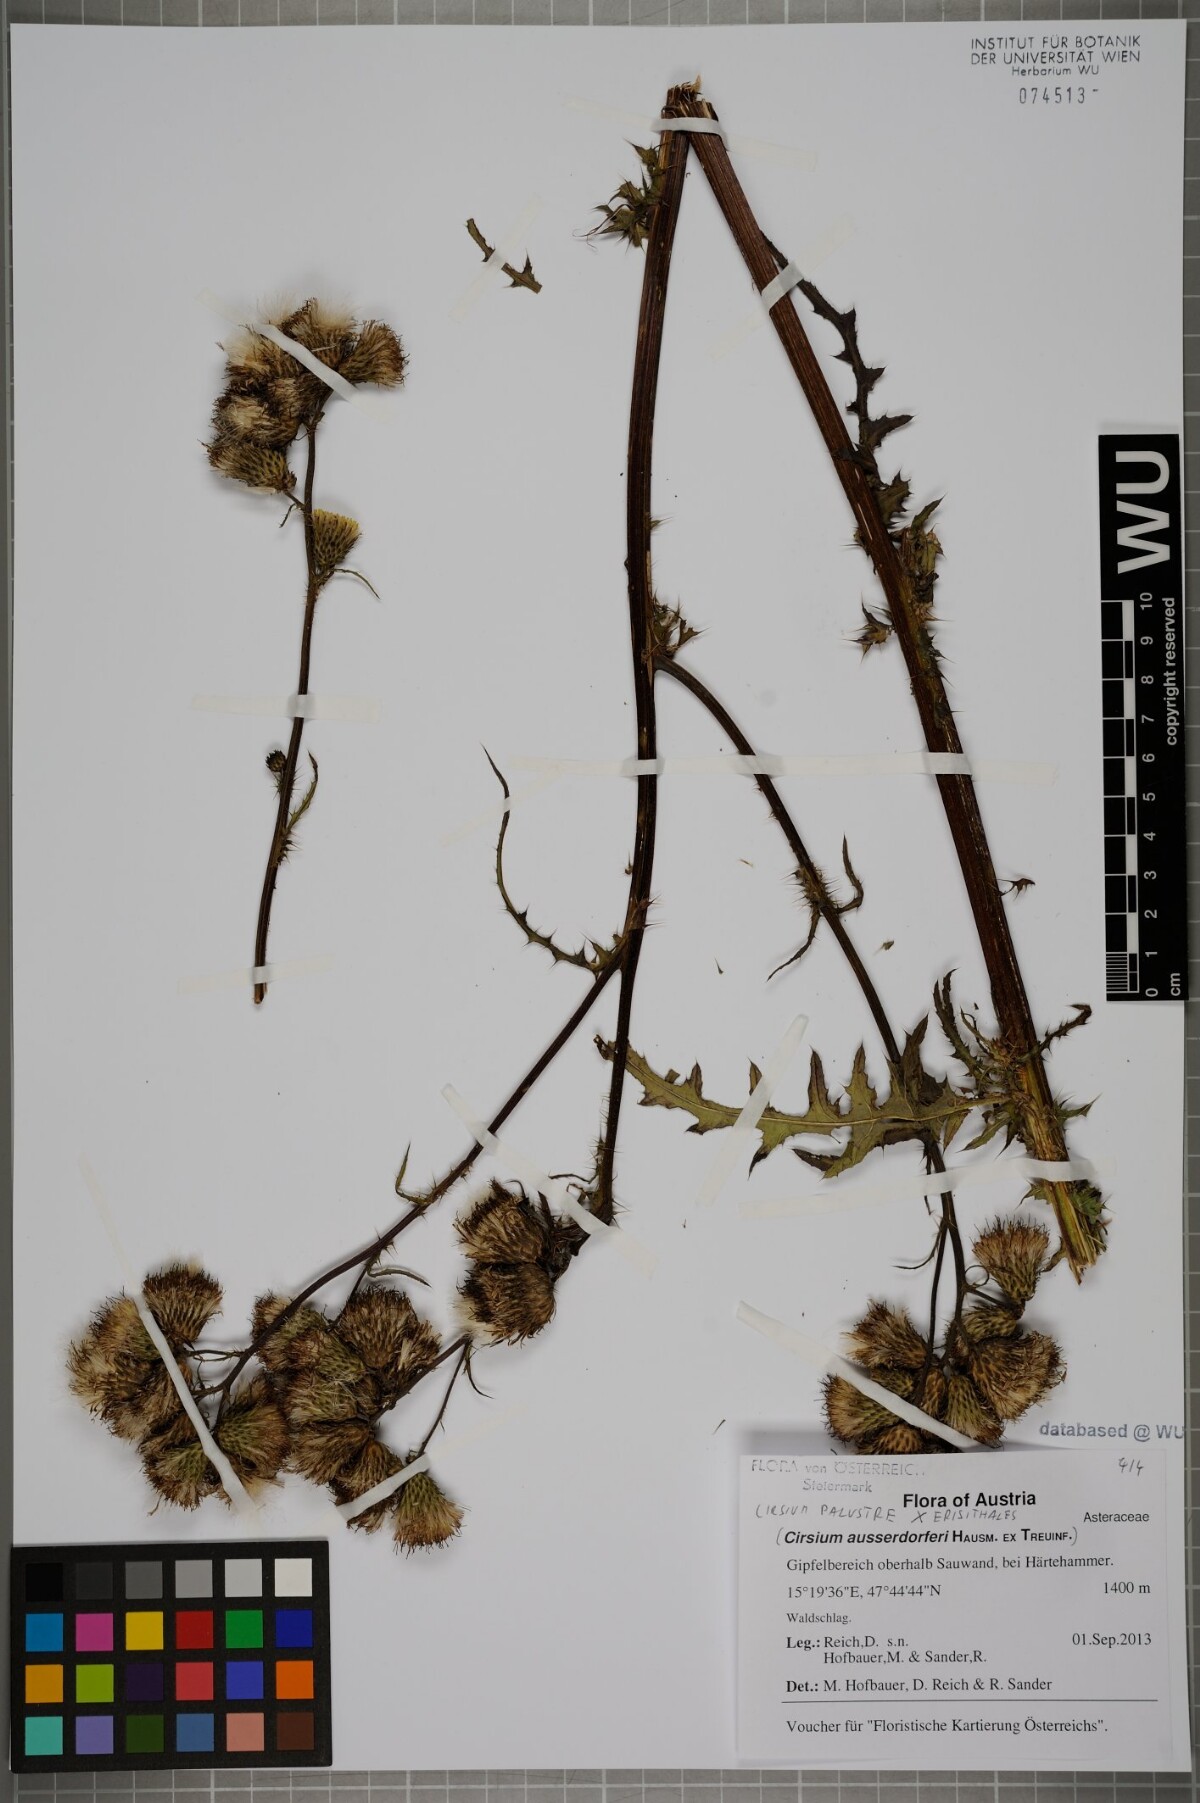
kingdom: Plantae
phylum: Tracheophyta
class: Magnoliopsida
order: Asterales
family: Asteraceae
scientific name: Asteraceae
